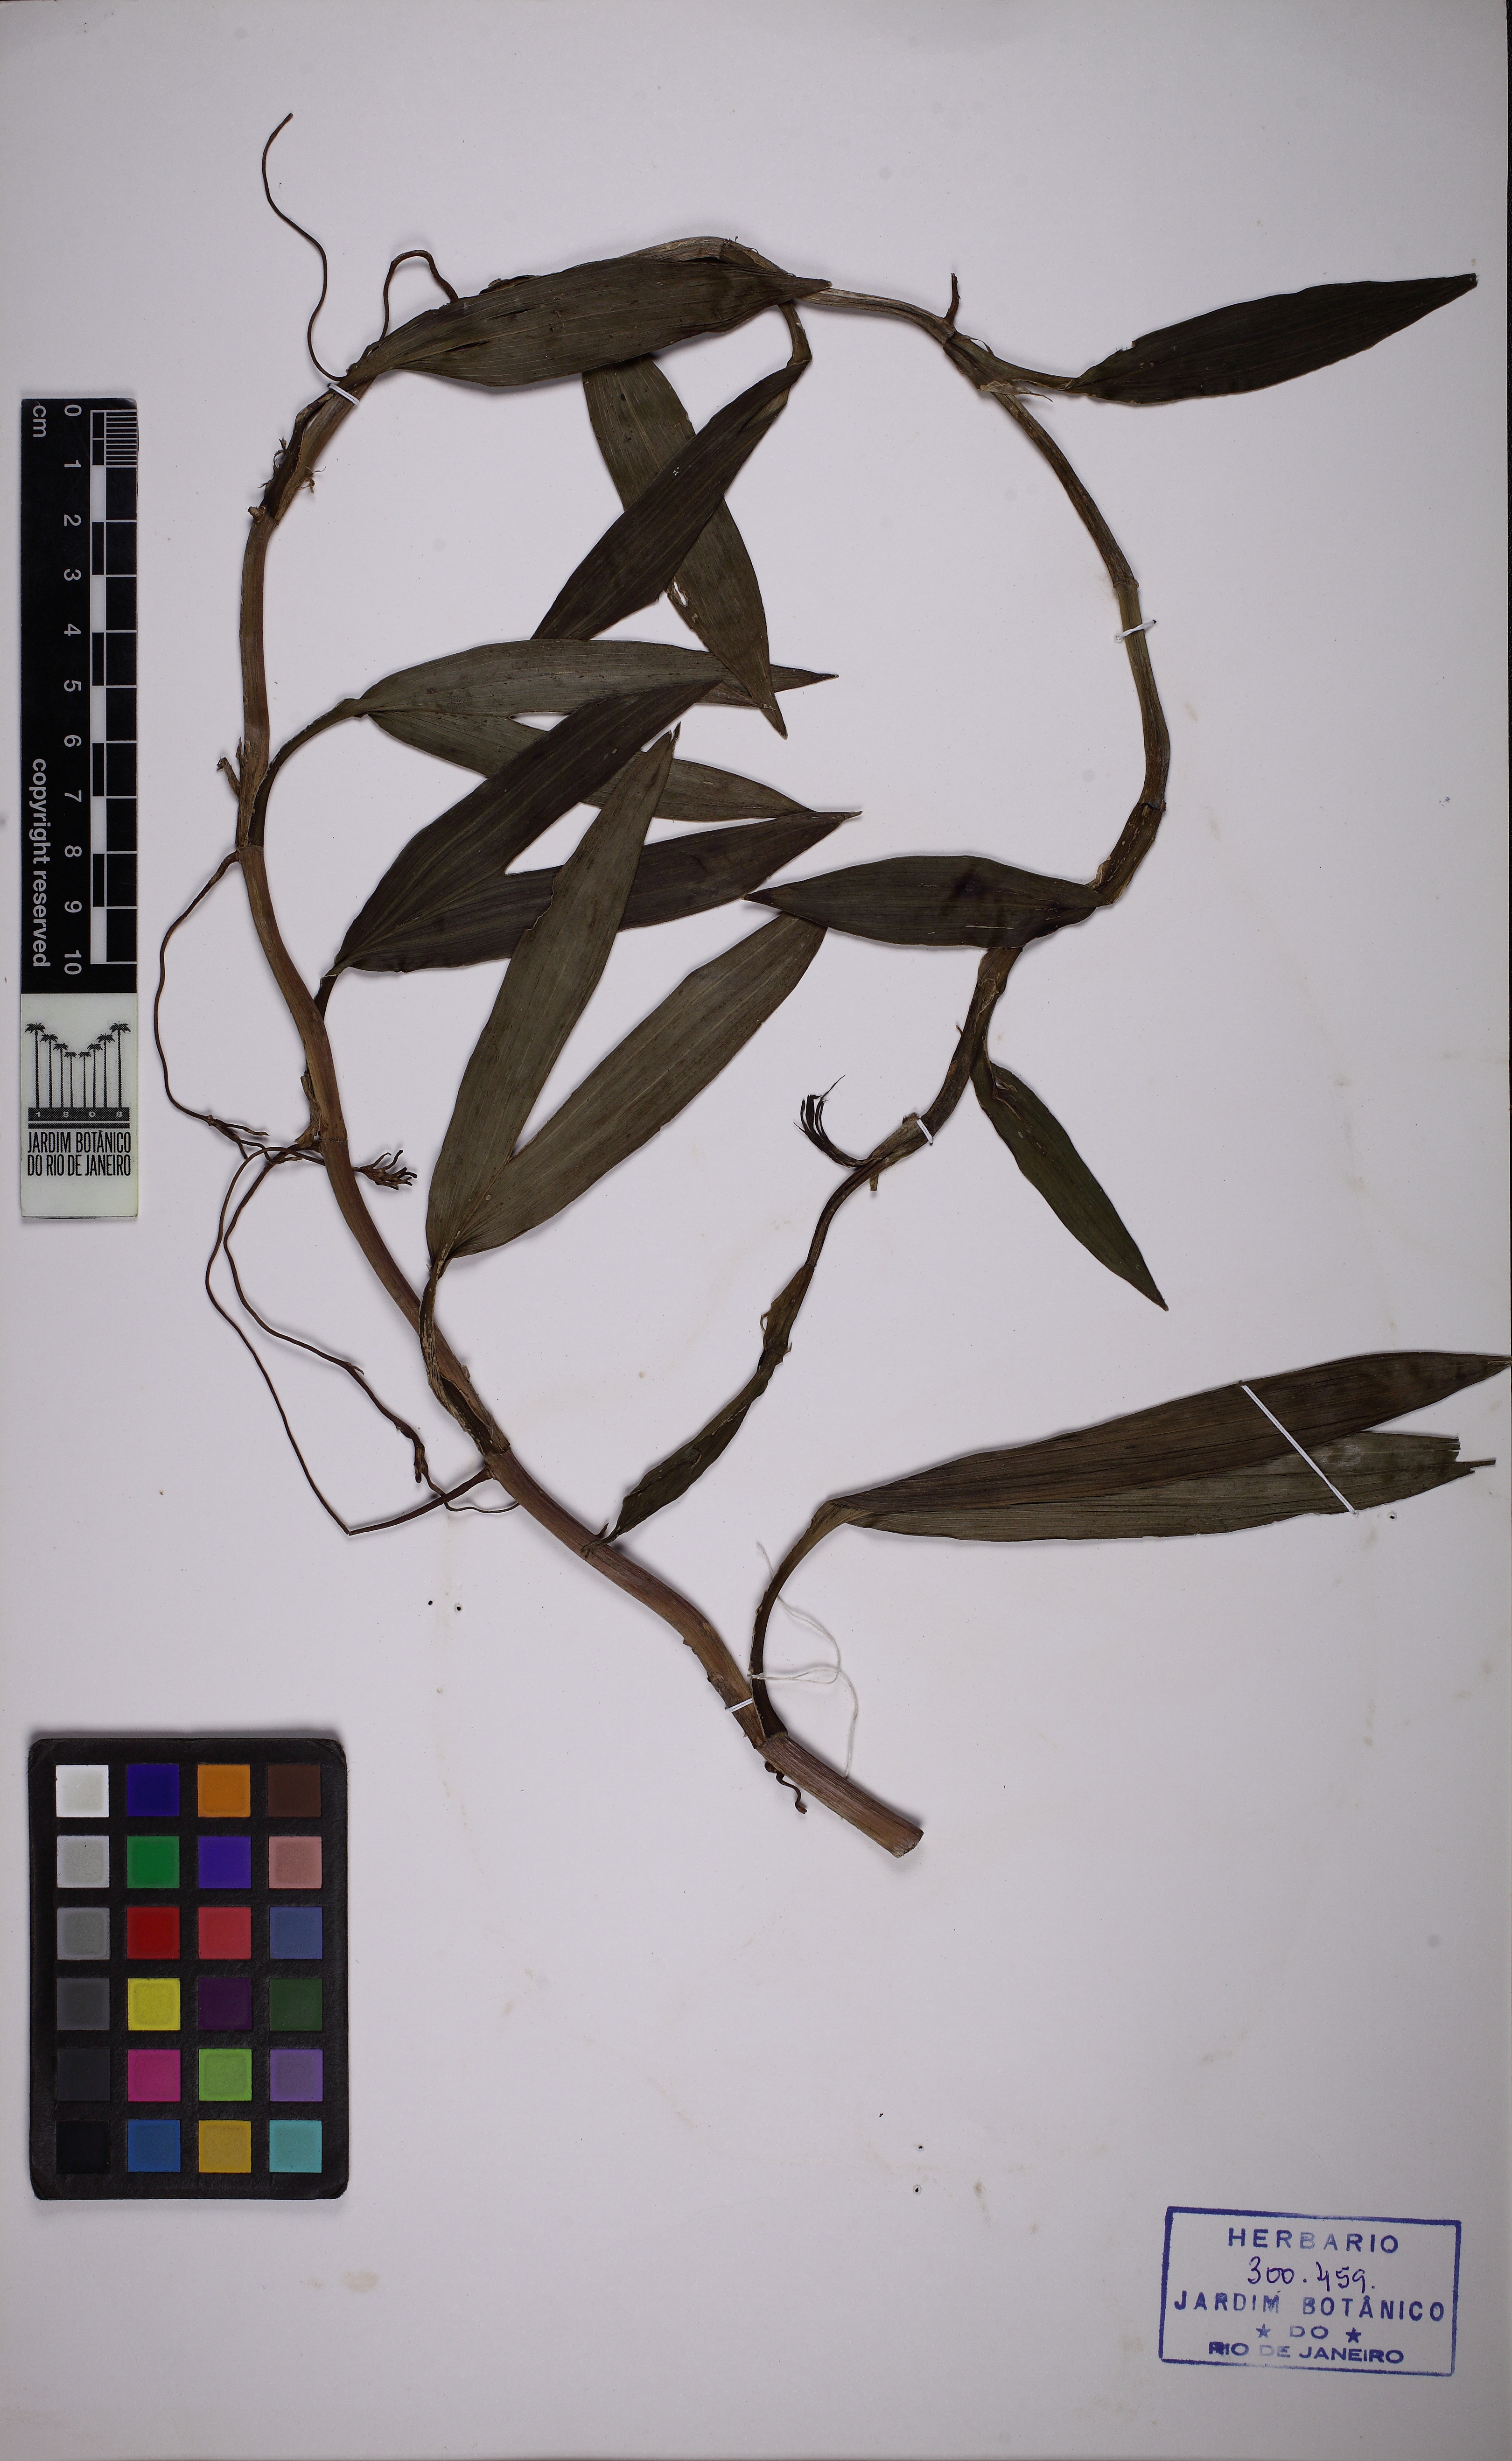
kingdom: Plantae
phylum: Tracheophyta
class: Liliopsida
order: Pandanales
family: Cyclanthaceae
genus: Thoracocarpus
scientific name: Thoracocarpus bissectus
